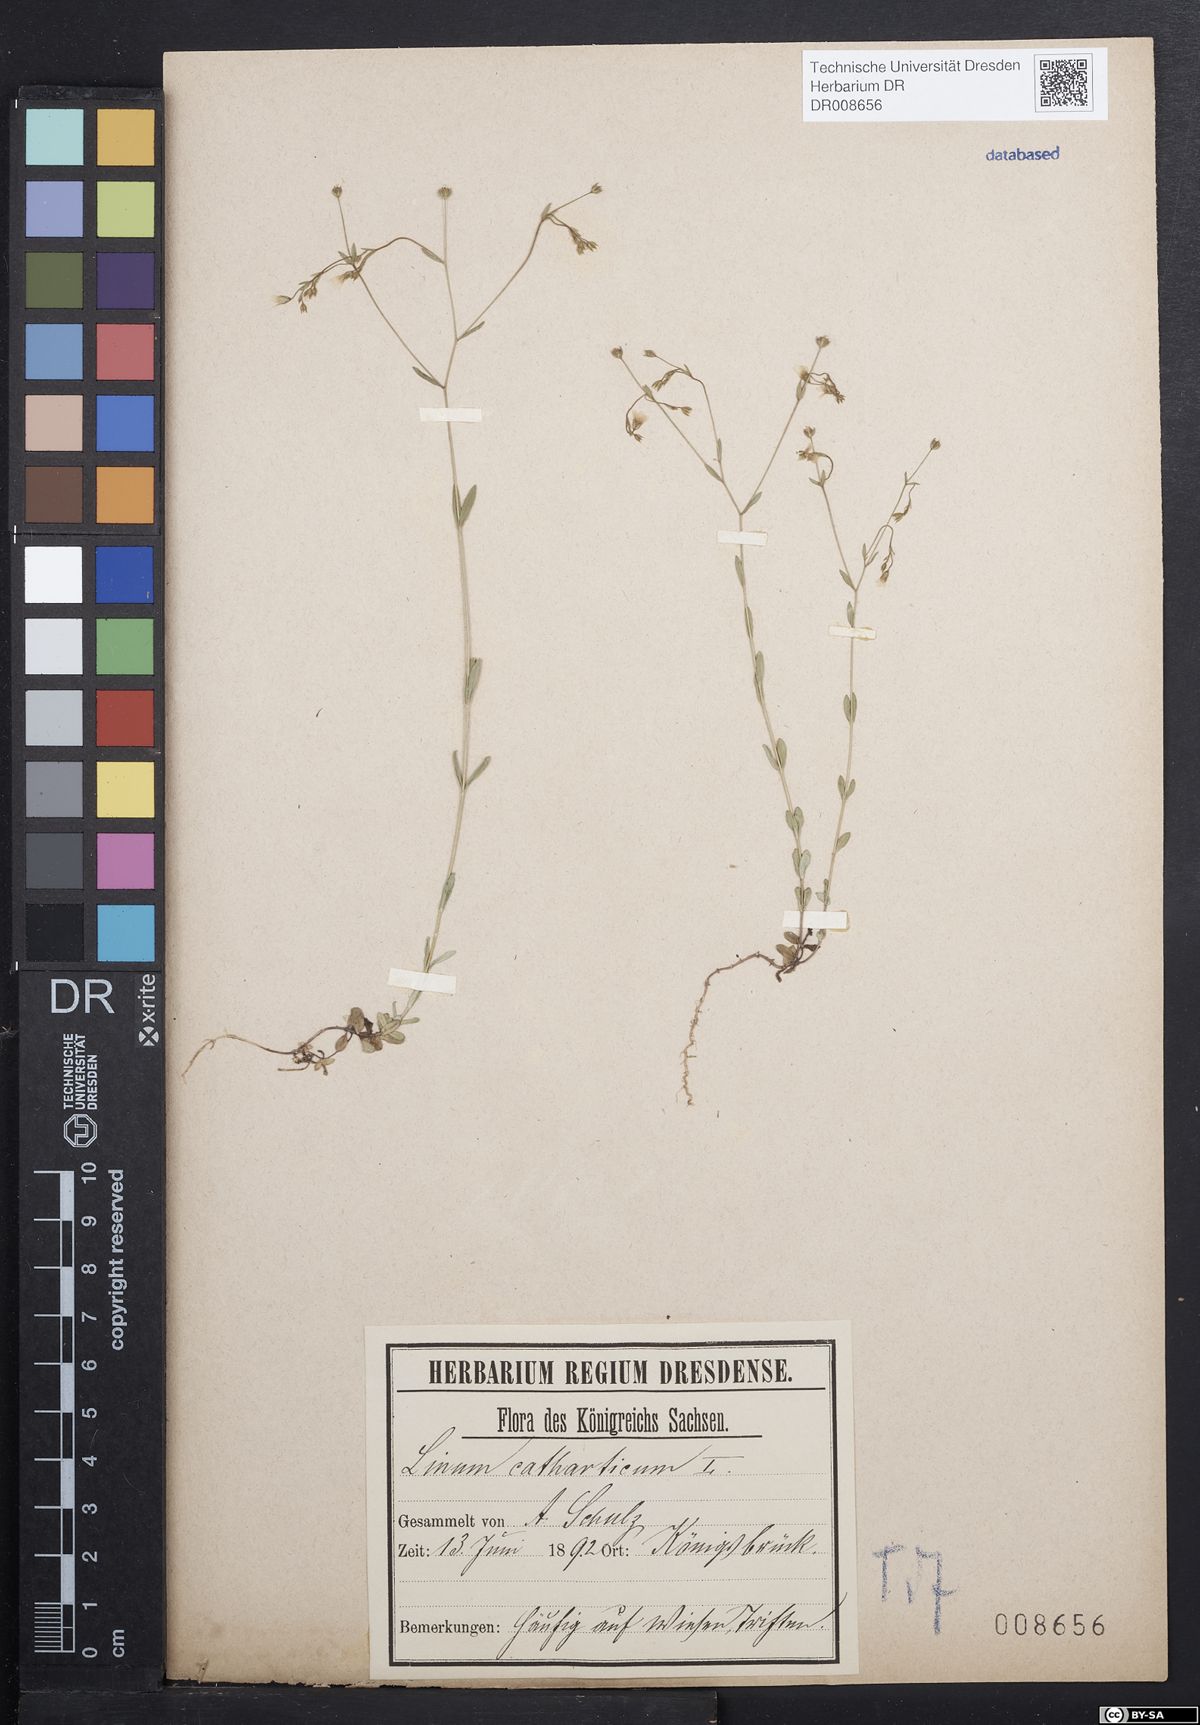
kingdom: Plantae
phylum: Tracheophyta
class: Magnoliopsida
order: Malpighiales
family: Linaceae
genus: Linum
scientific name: Linum catharticum
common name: Fairy flax
